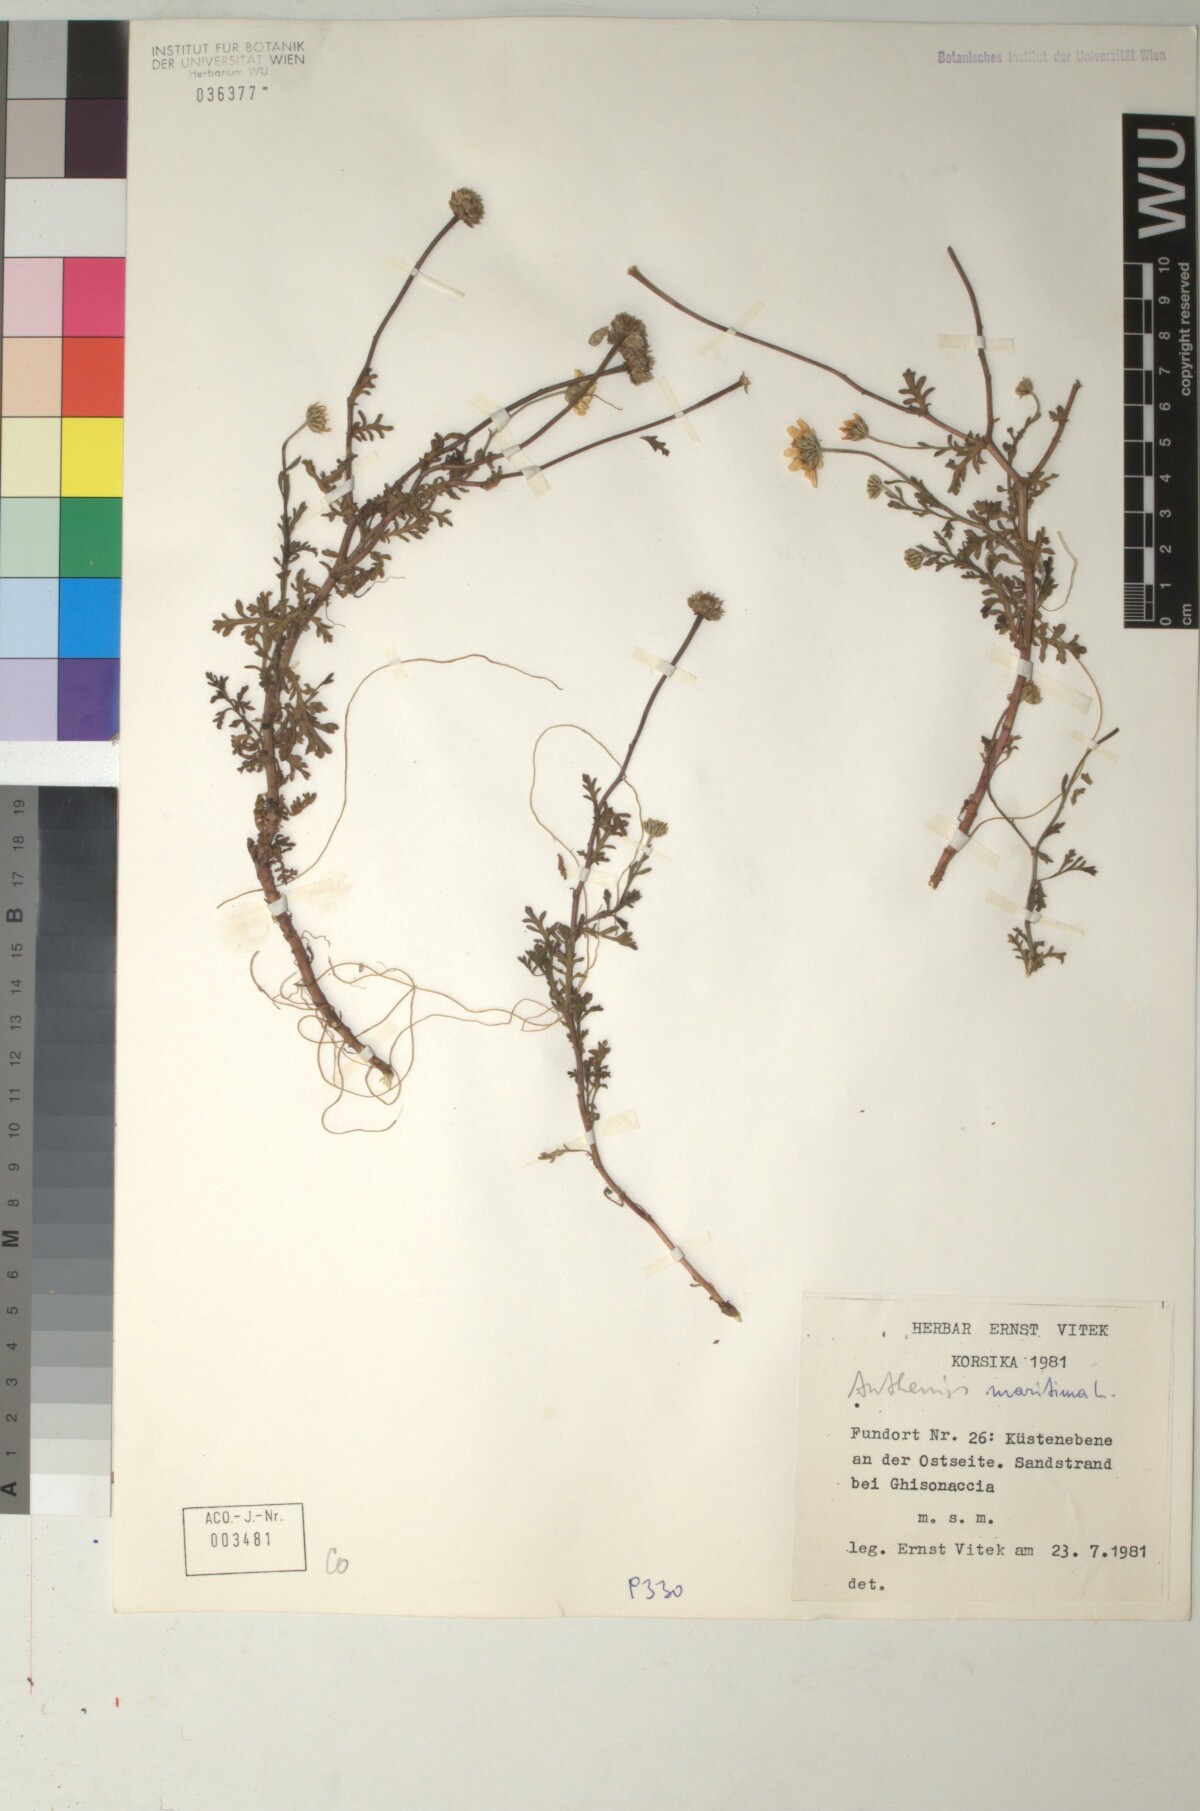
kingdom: Plantae
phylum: Tracheophyta
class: Magnoliopsida
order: Asterales
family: Asteraceae
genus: Anthemis
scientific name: Anthemis maritima
